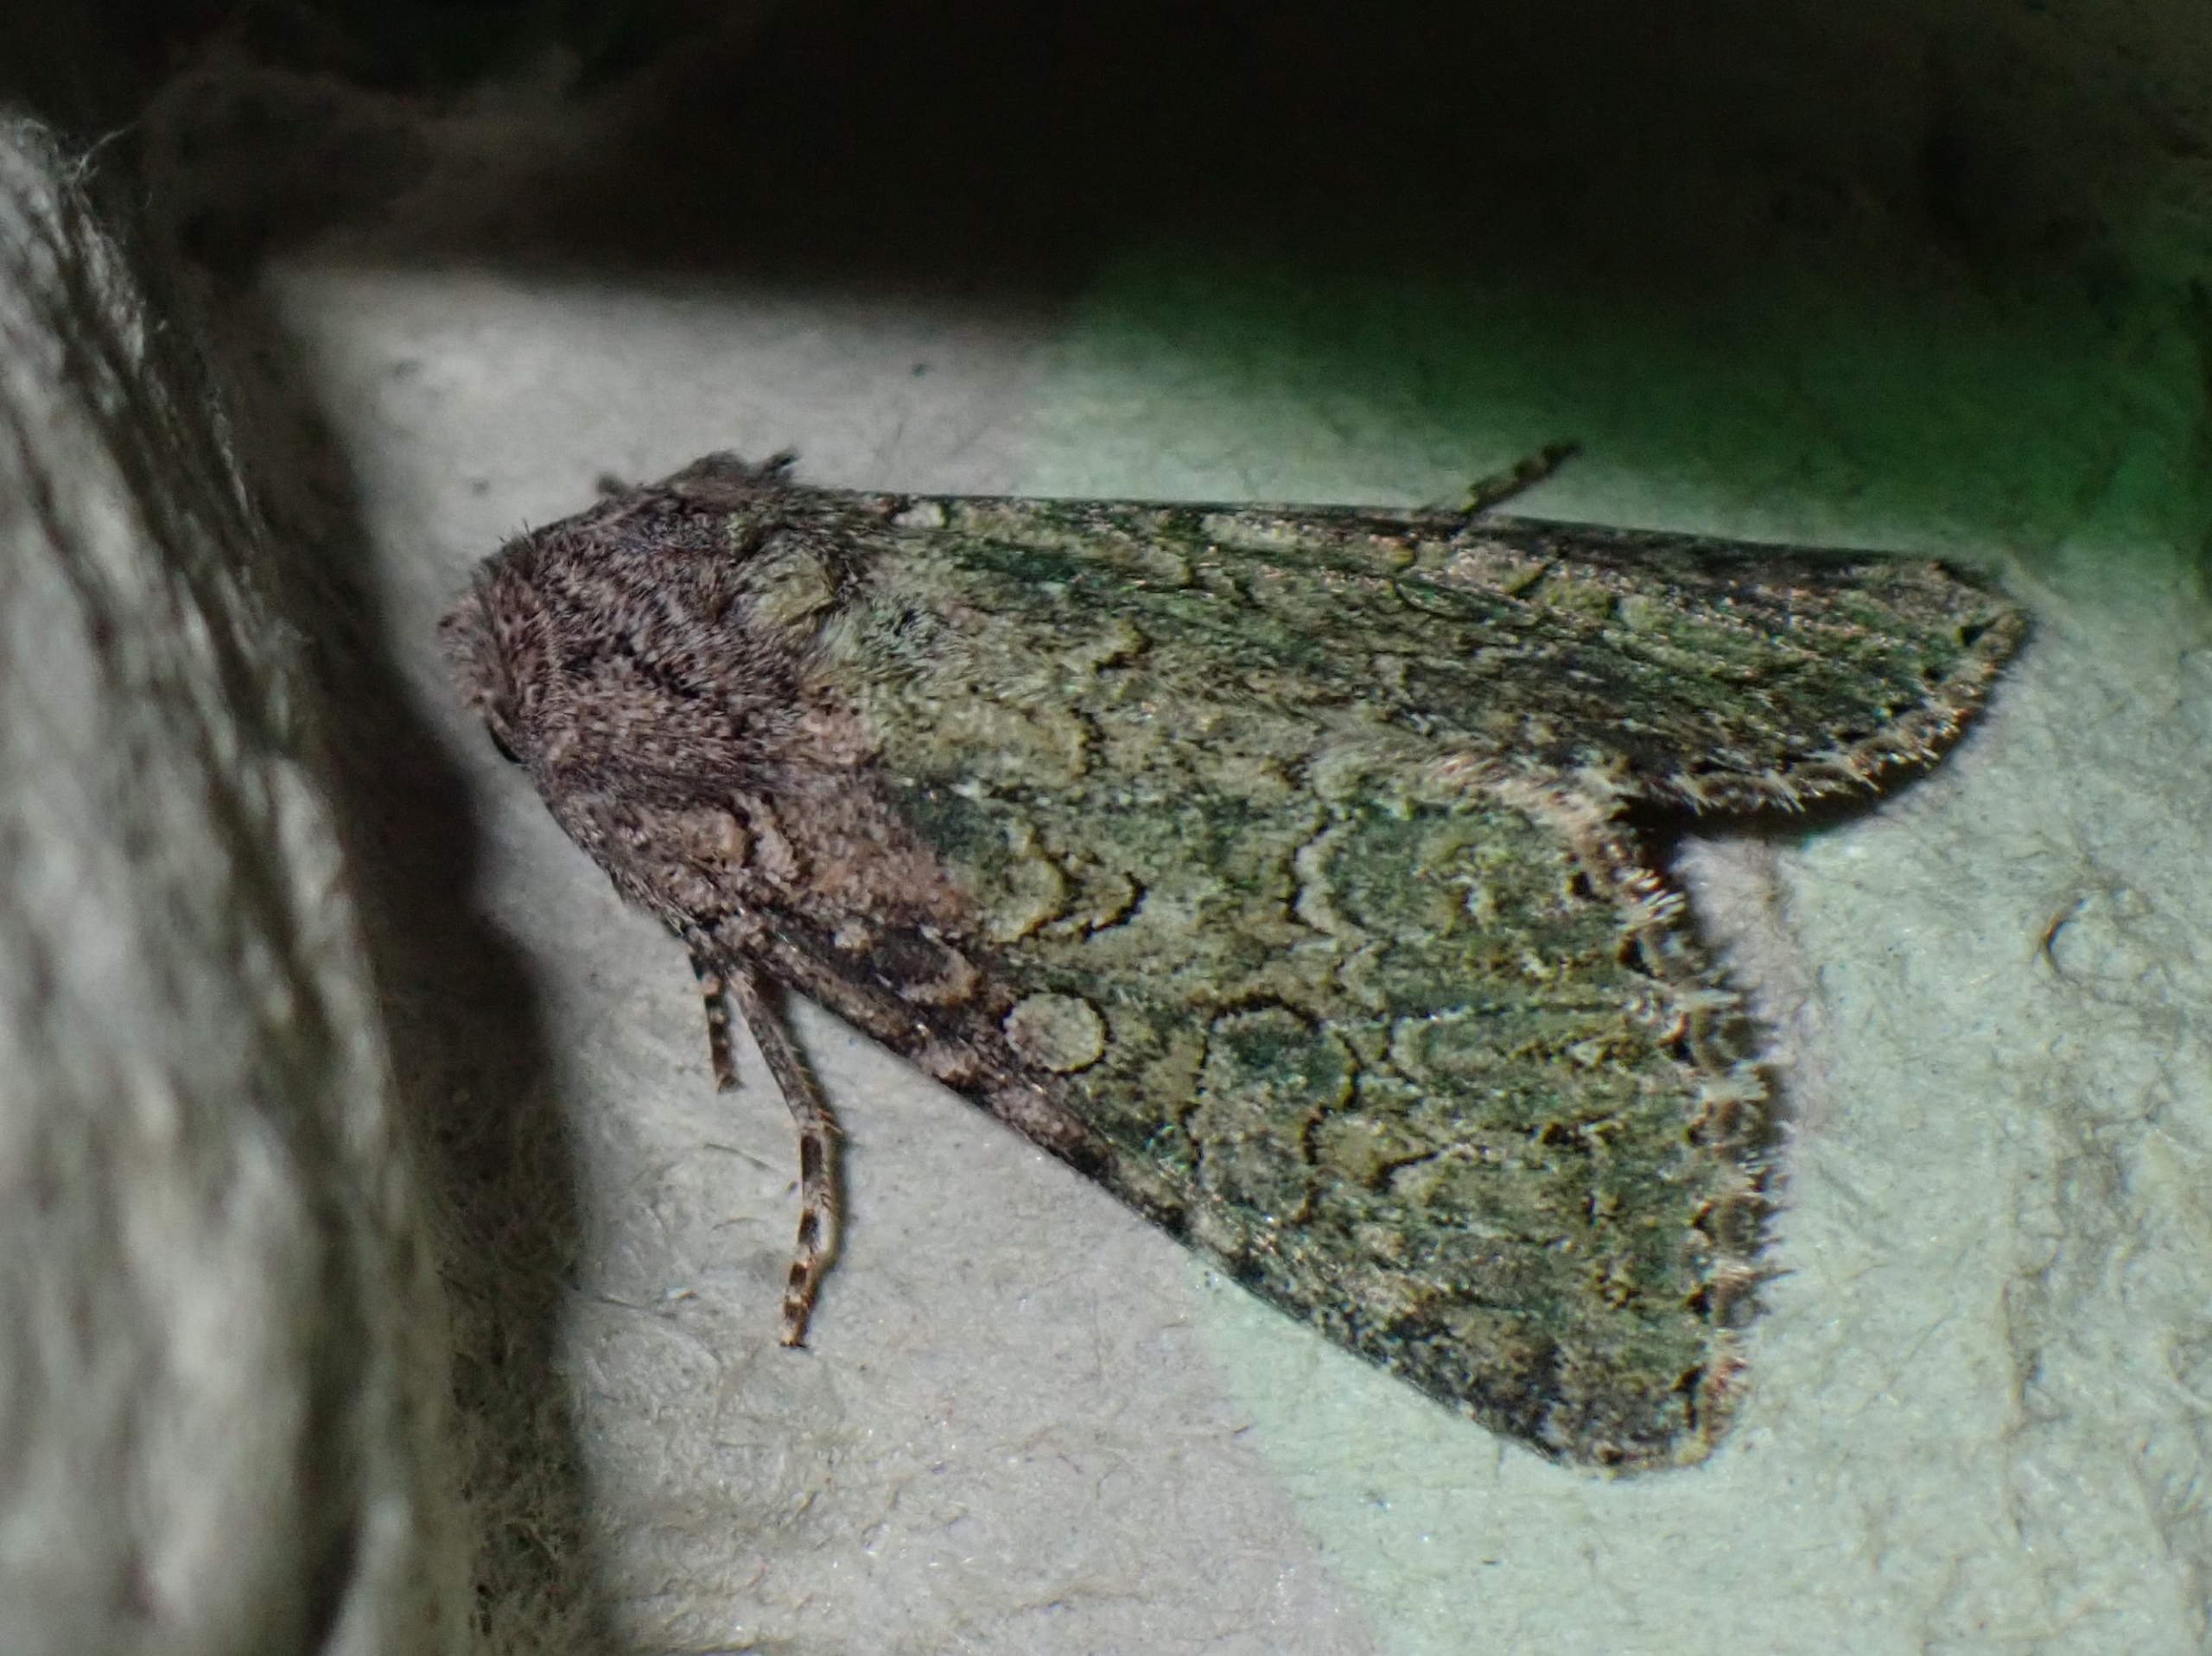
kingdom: Animalia
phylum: Arthropoda
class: Insecta
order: Lepidoptera
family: Noctuidae
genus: Anarta
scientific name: Anarta trifolii
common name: Bedeugle
